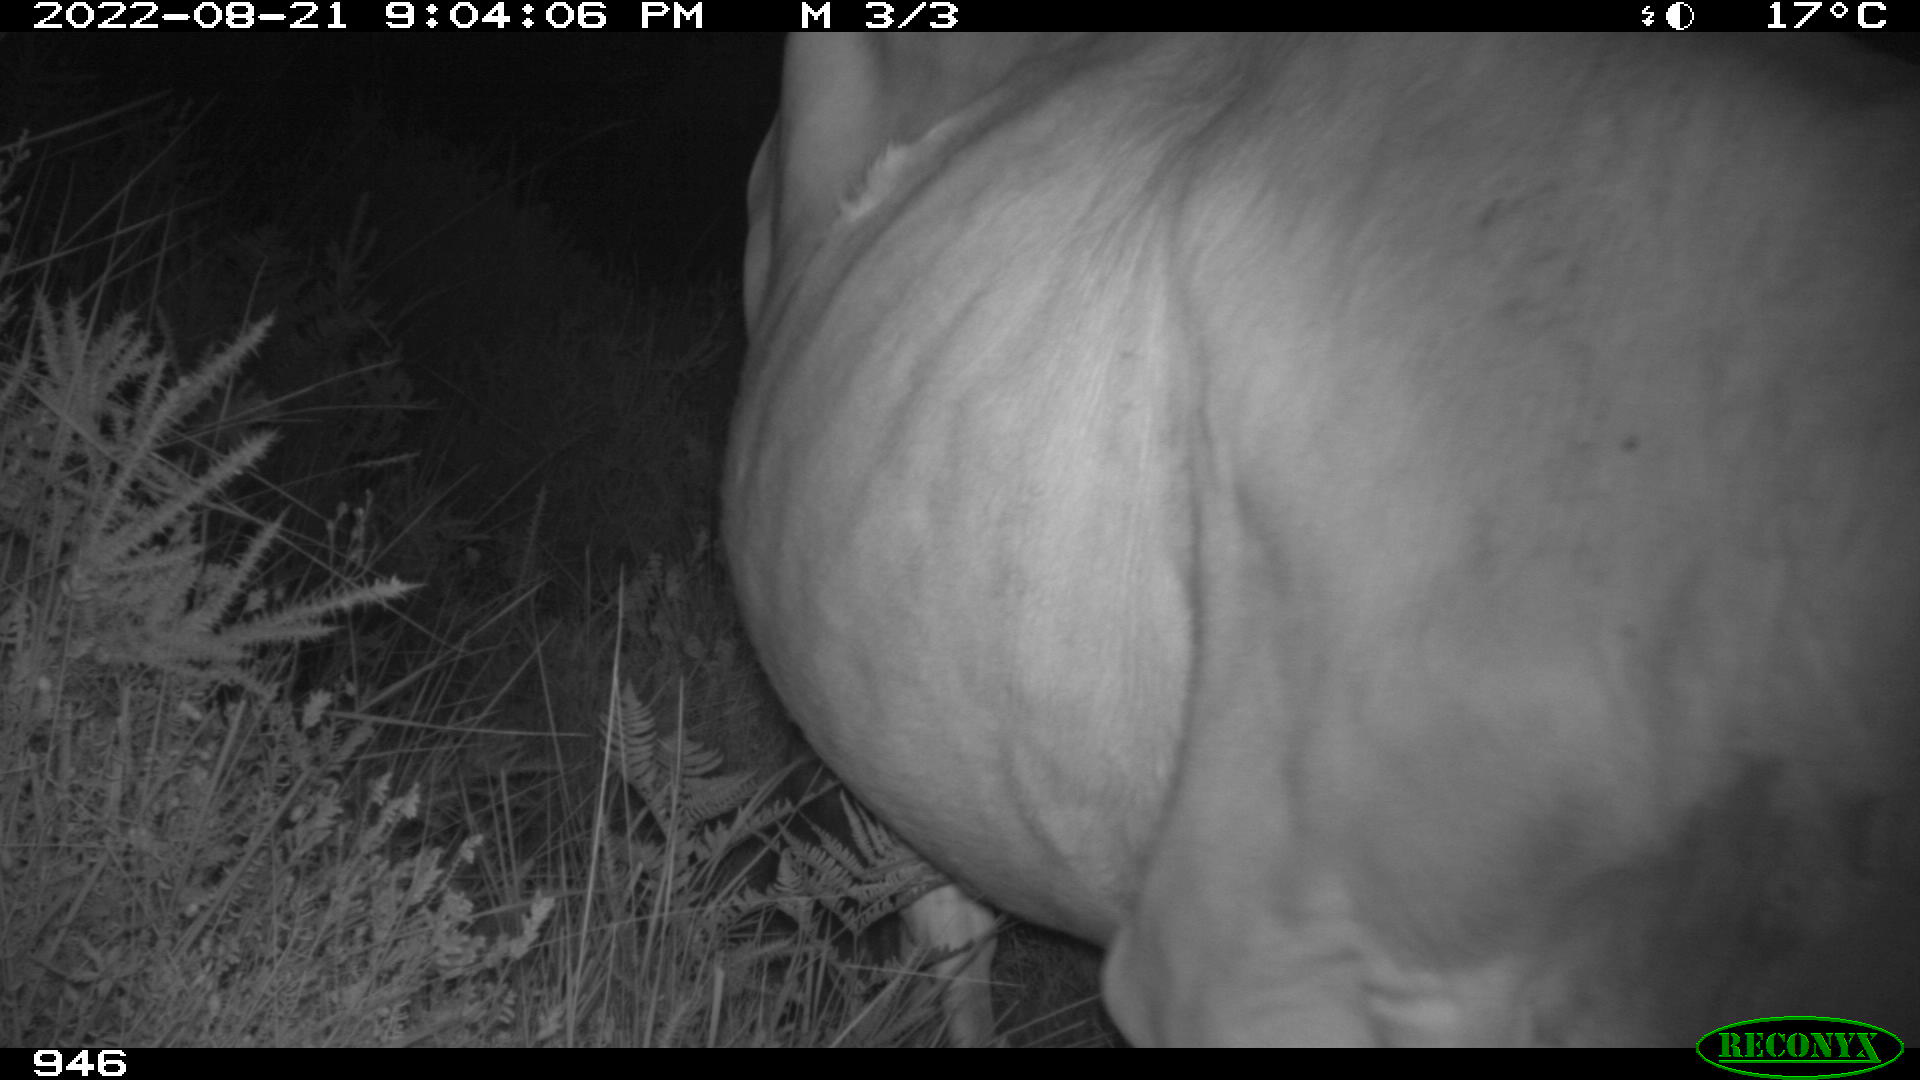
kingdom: Animalia
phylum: Chordata
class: Mammalia
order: Artiodactyla
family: Bovidae
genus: Bos
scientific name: Bos taurus
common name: Domesticated cattle
